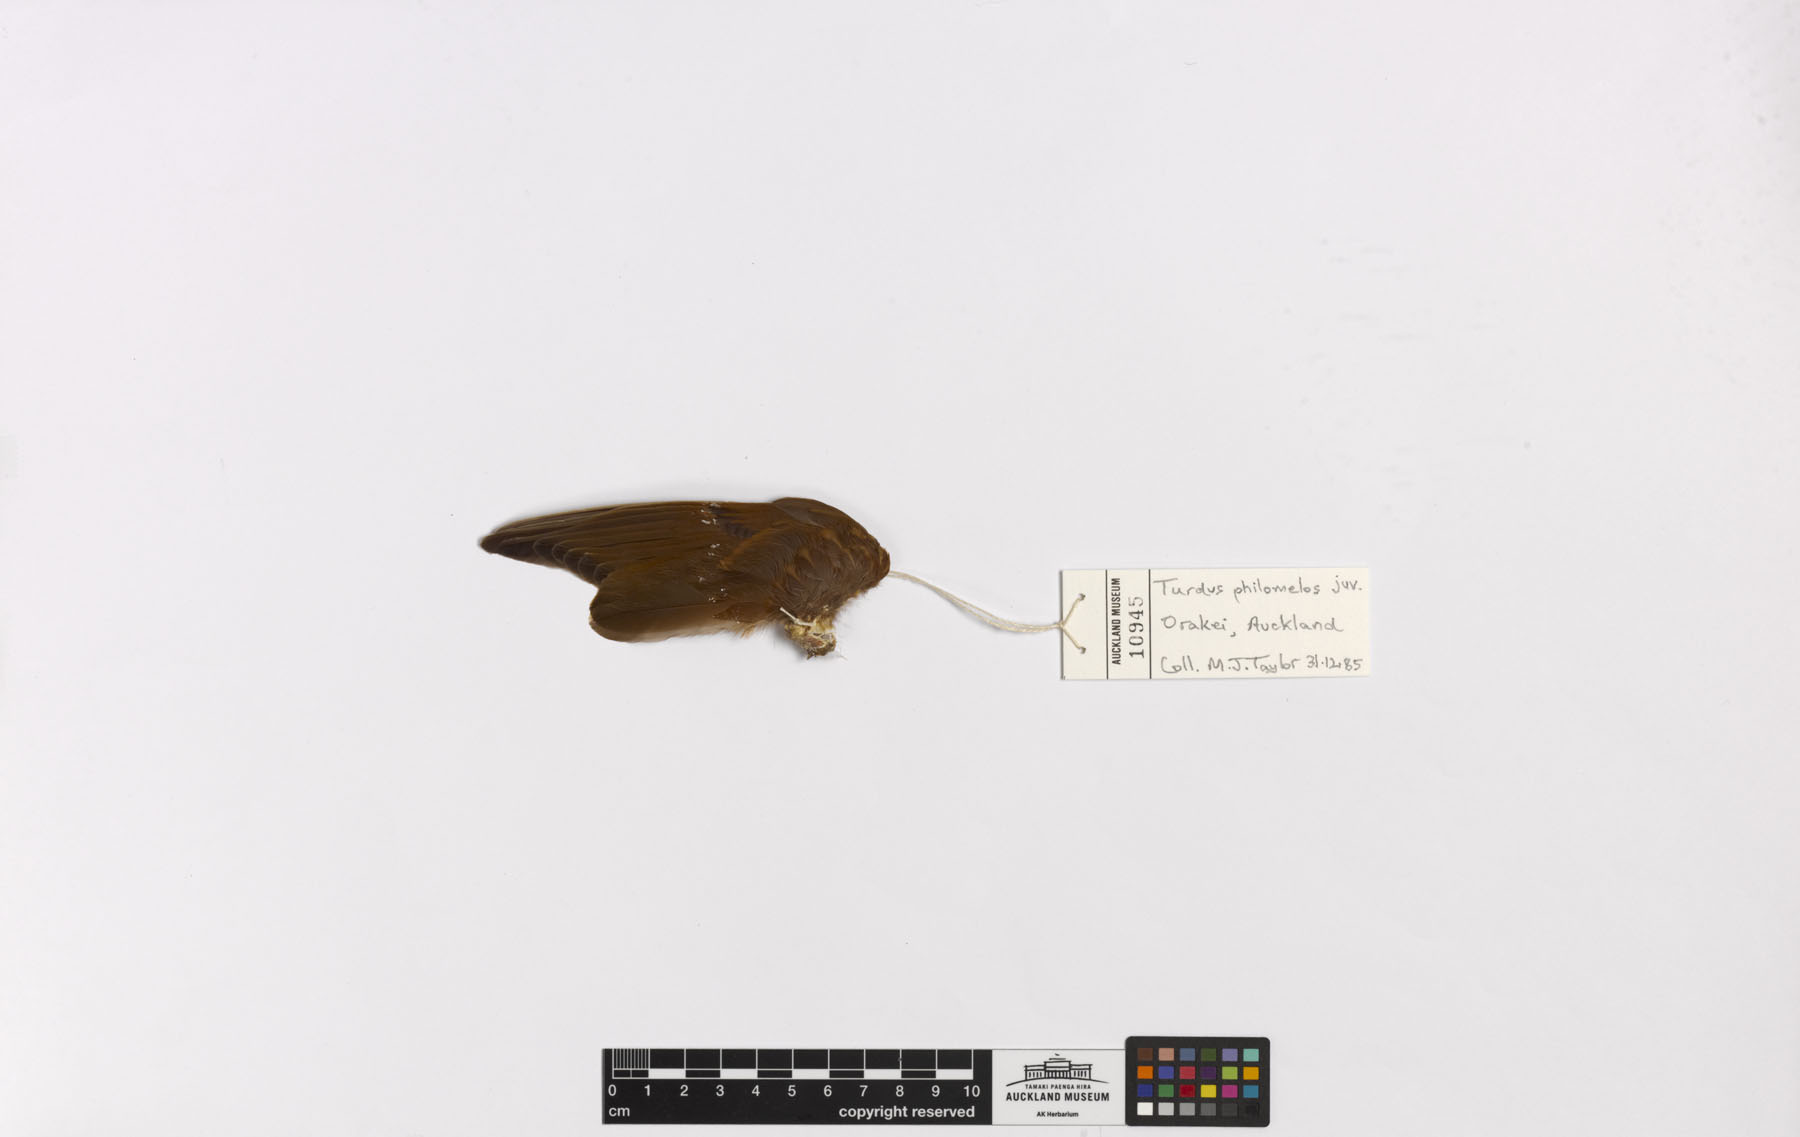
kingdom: Animalia
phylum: Chordata
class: Aves
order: Passeriformes
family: Turdidae
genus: Turdus
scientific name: Turdus philomelos
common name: Song thrush
